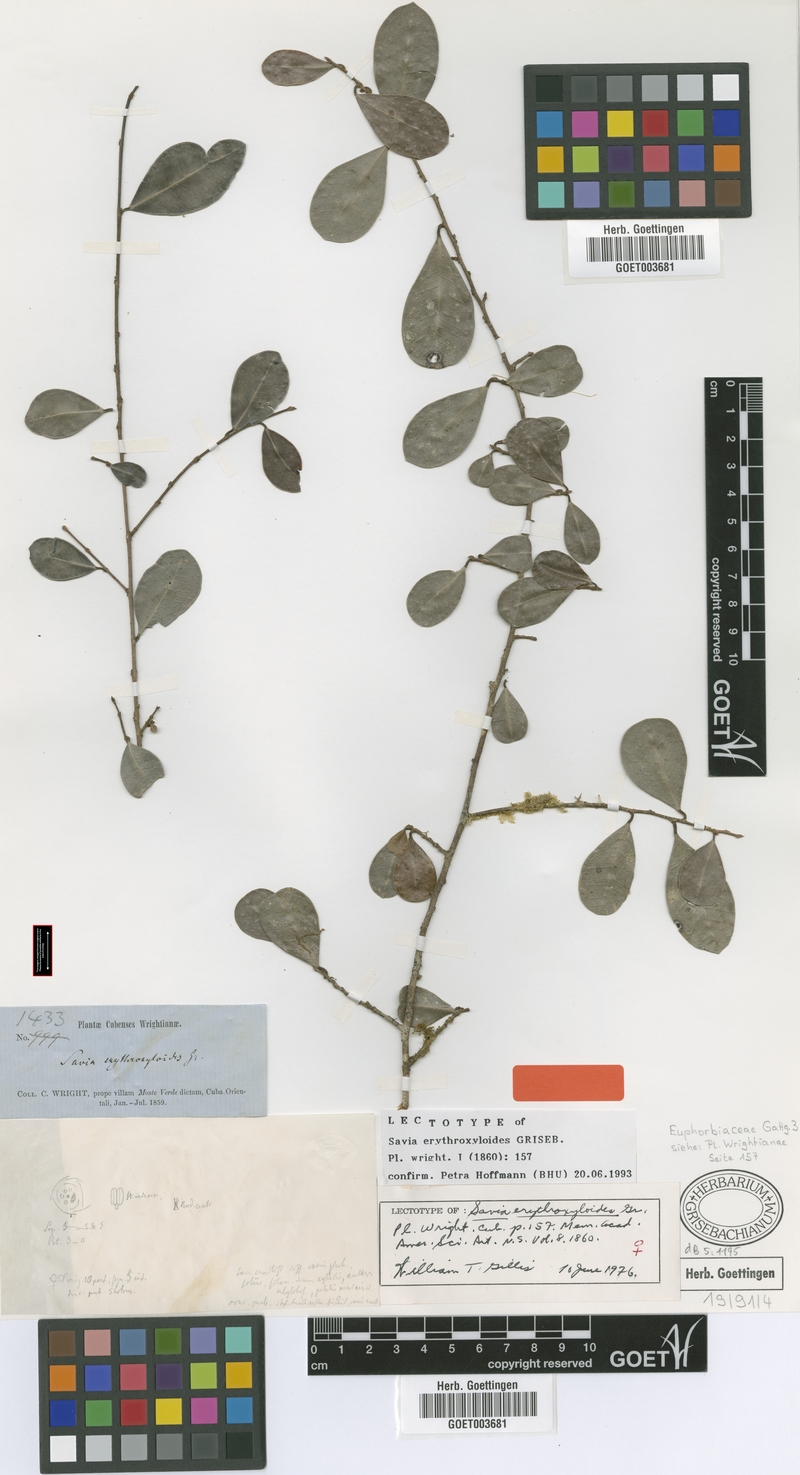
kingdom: Plantae
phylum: Tracheophyta
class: Magnoliopsida
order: Malpighiales
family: Phyllanthaceae
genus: Heterosavia
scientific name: Heterosavia erythroxyloides
